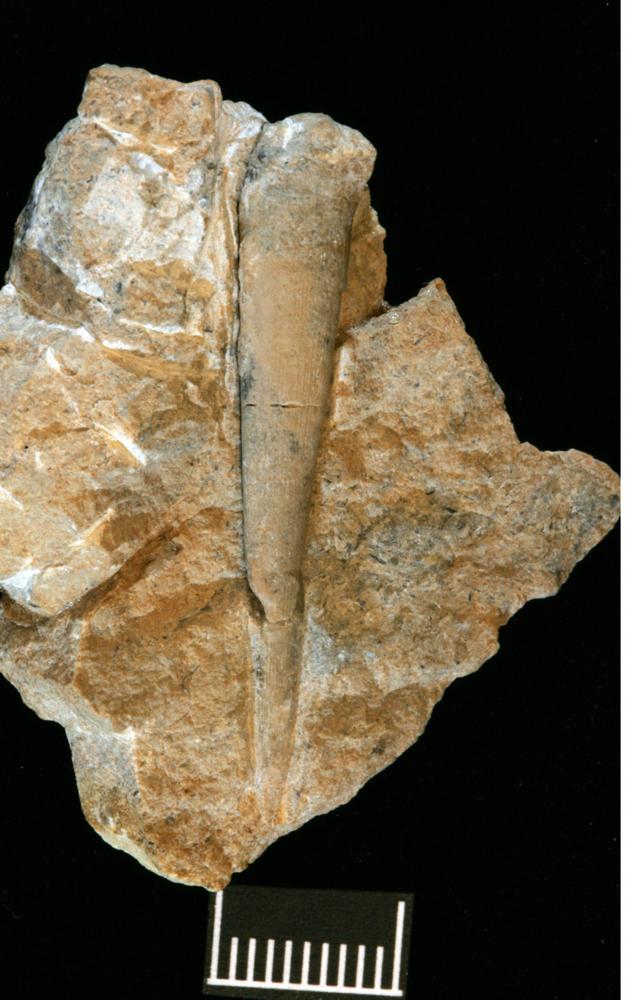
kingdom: Animalia
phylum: Annelida
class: Polychaeta
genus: Hyolithes
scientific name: Hyolithes
